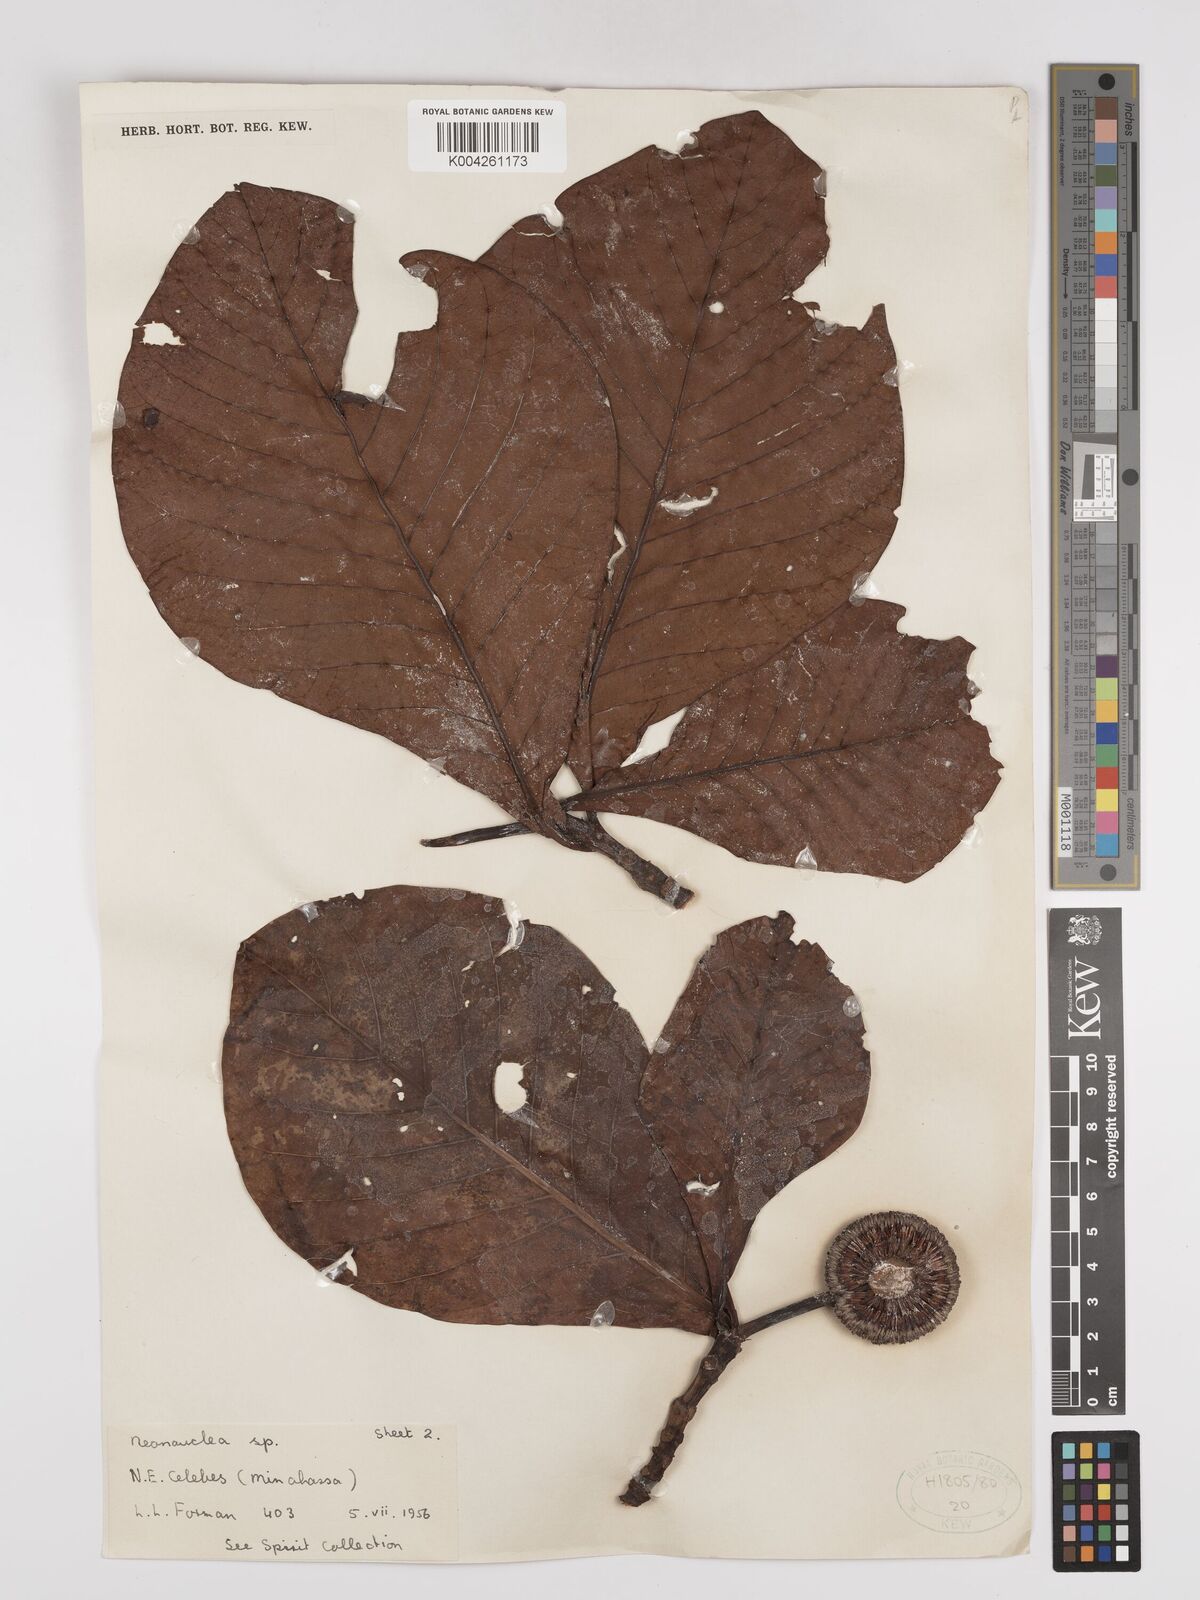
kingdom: Plantae
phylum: Tracheophyta
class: Magnoliopsida
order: Gentianales
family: Rubiaceae
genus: Neonauclea
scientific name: Neonauclea obversifolia
